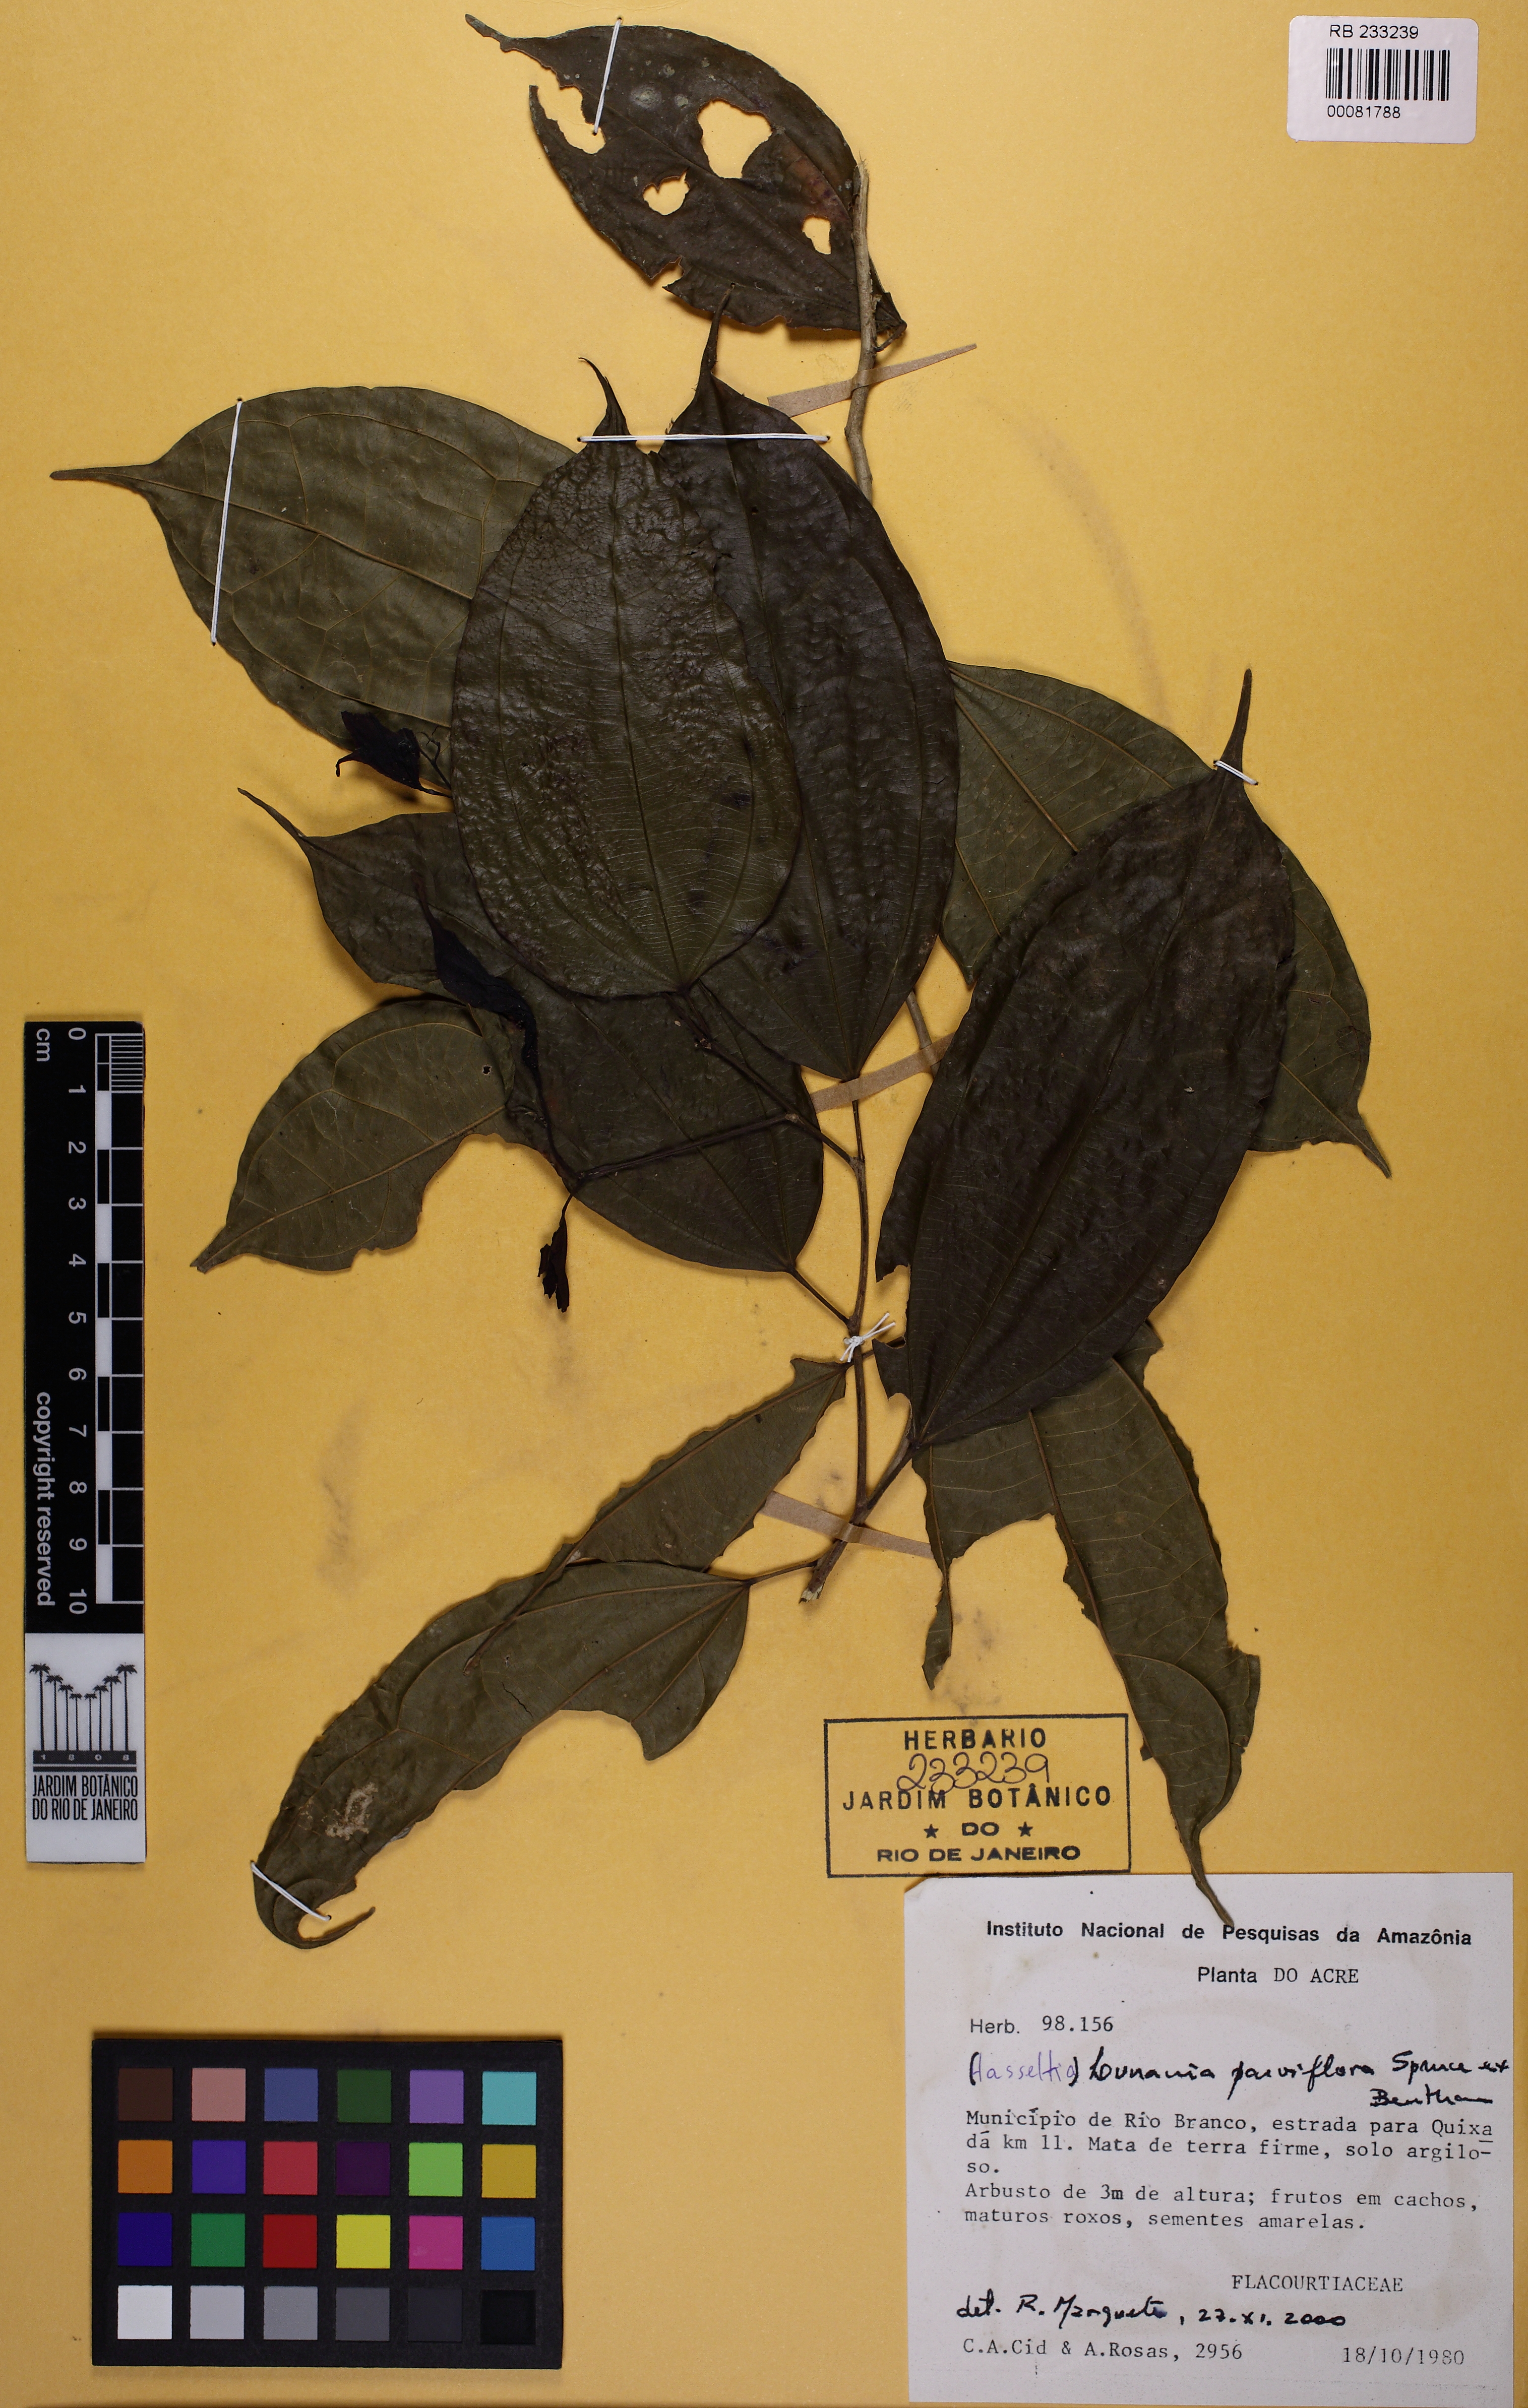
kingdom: Plantae
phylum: Tracheophyta
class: Magnoliopsida
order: Malpighiales
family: Salicaceae
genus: Hasseltia
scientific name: Hasseltia
